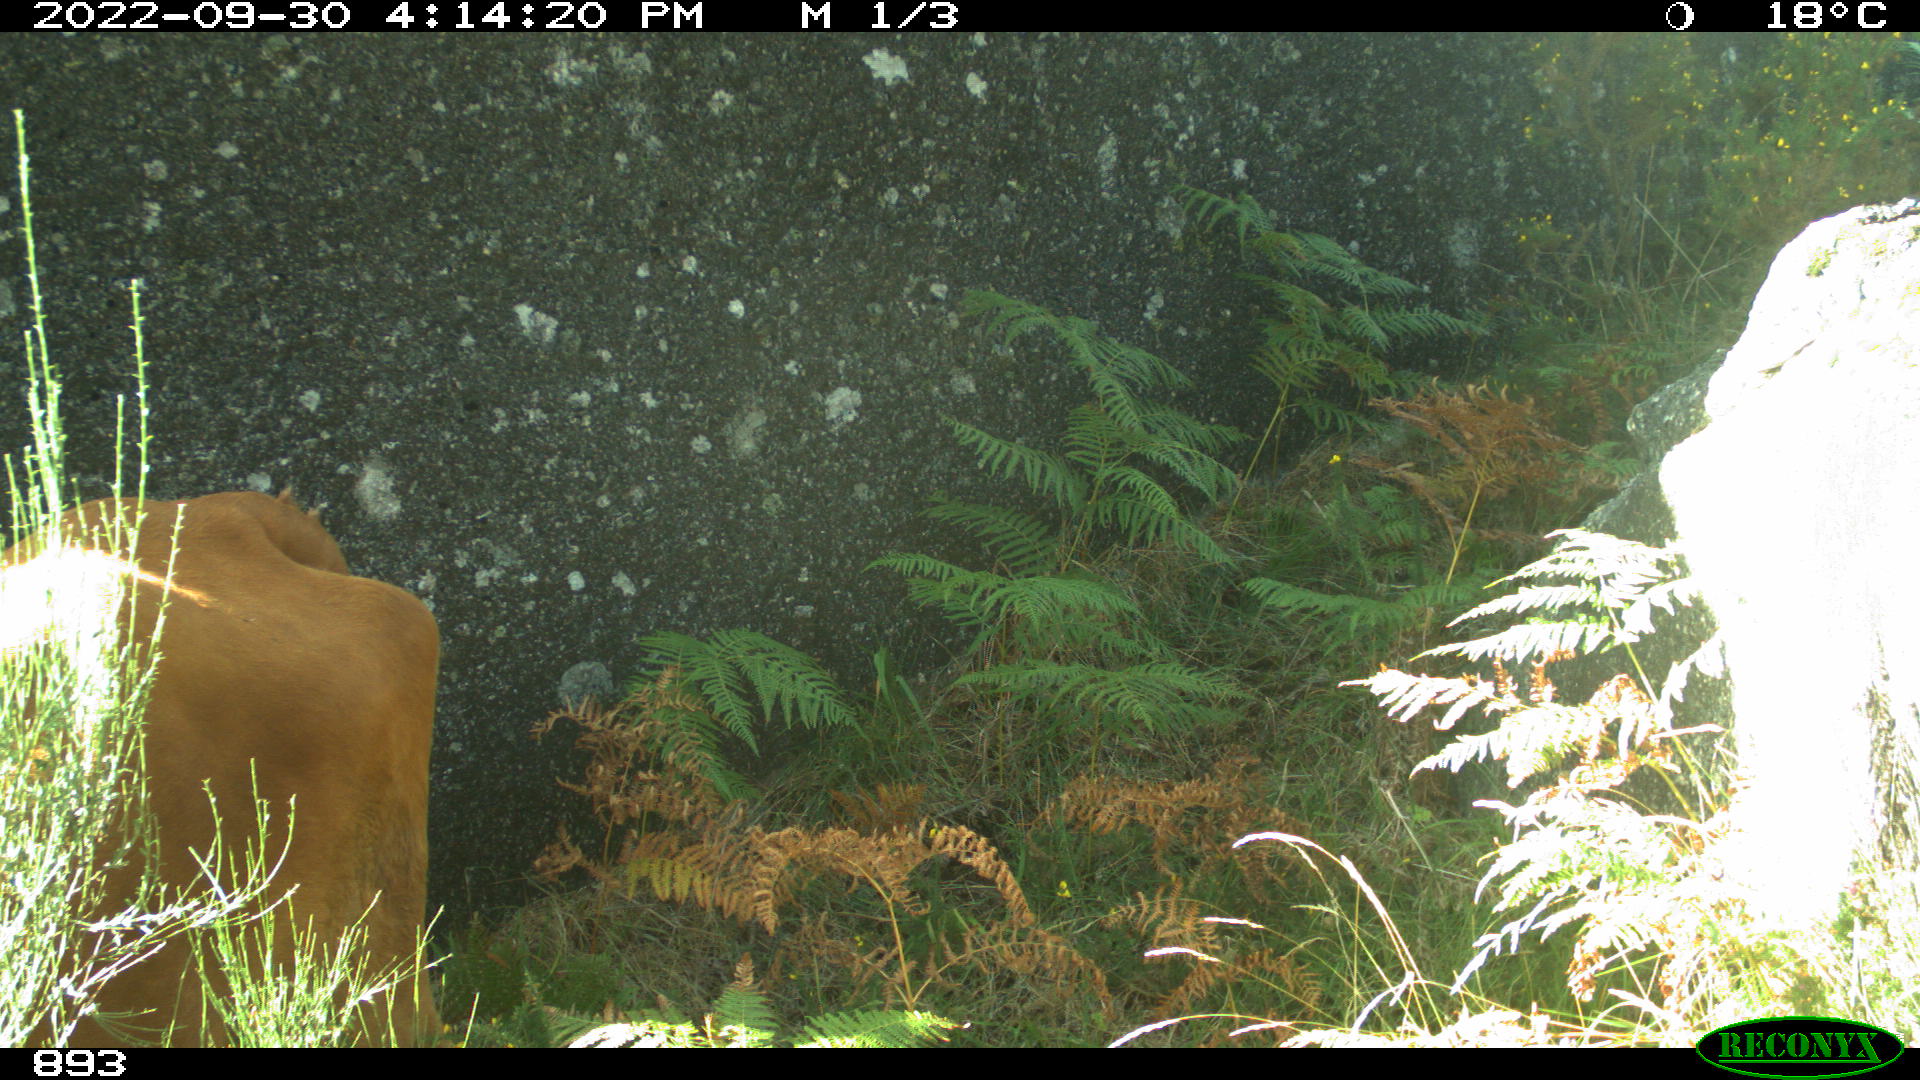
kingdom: Animalia
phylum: Chordata
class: Mammalia
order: Artiodactyla
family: Bovidae
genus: Bos
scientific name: Bos taurus
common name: Domesticated cattle
